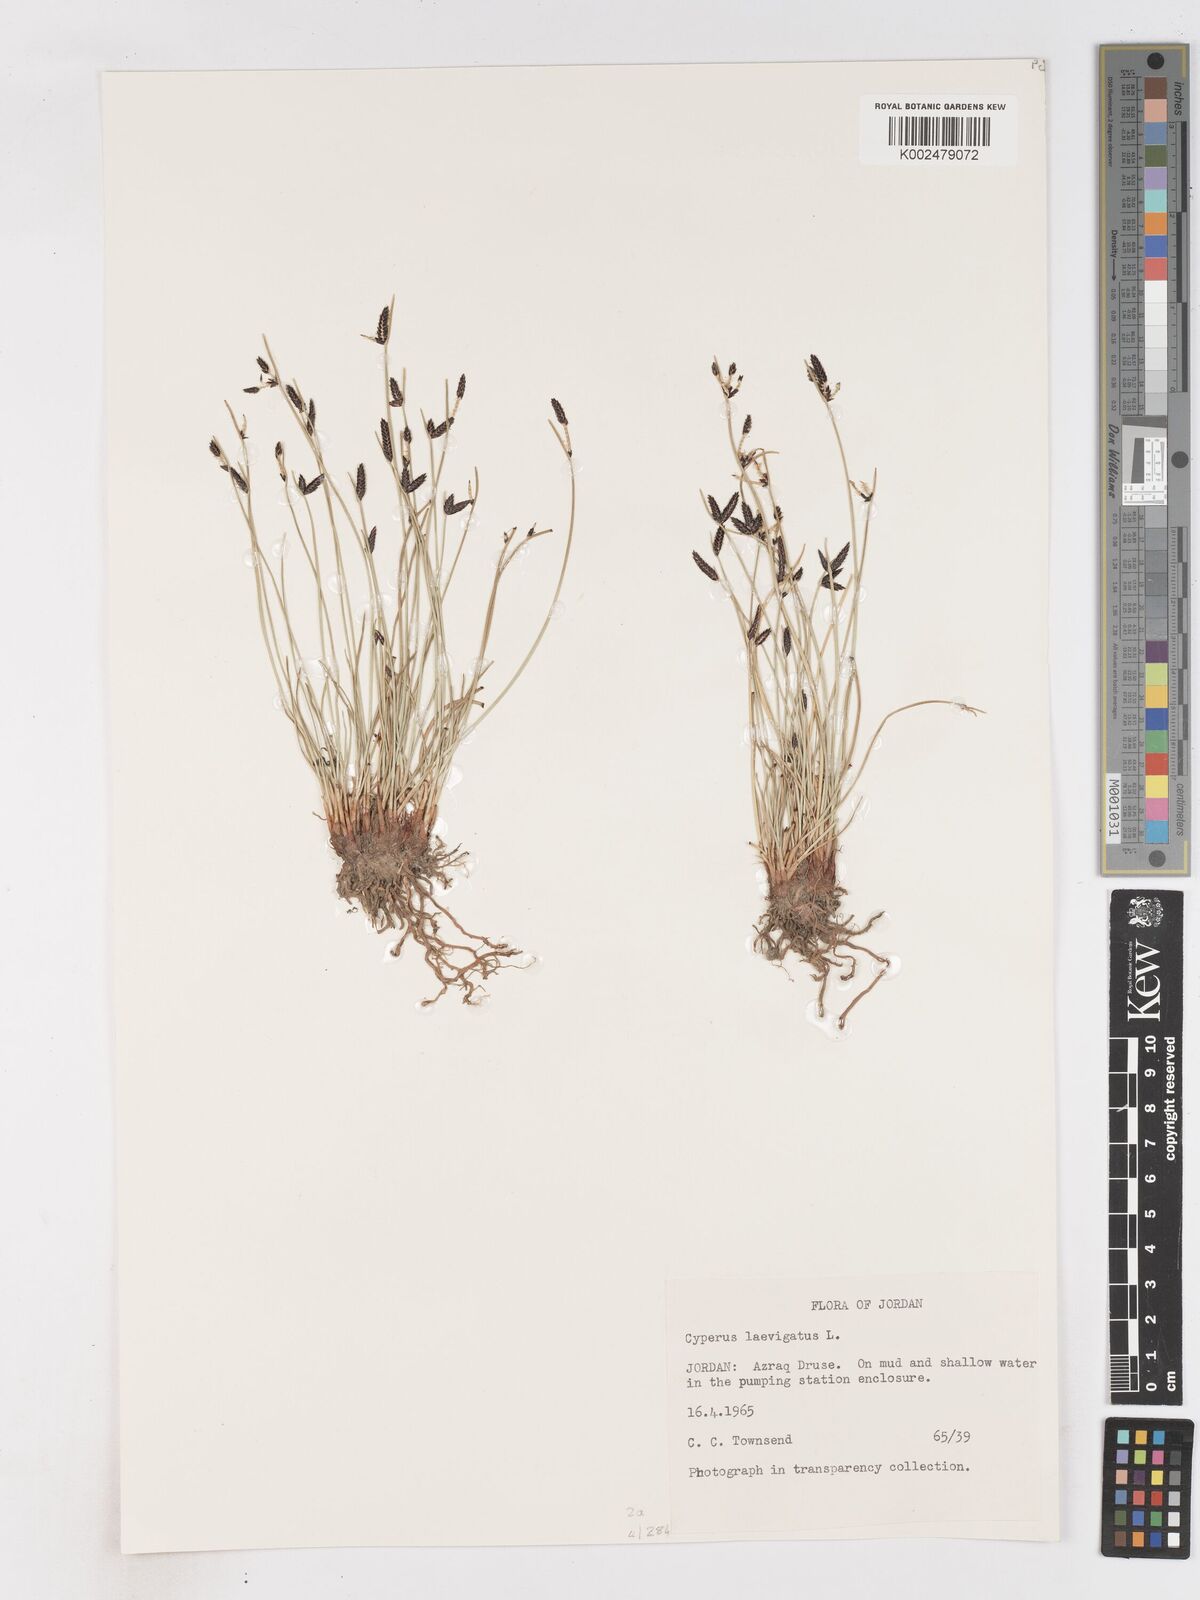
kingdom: Plantae
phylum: Tracheophyta
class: Liliopsida
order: Poales
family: Cyperaceae
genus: Cyperus
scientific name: Cyperus laevigatus
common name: Smooth flat sedge
